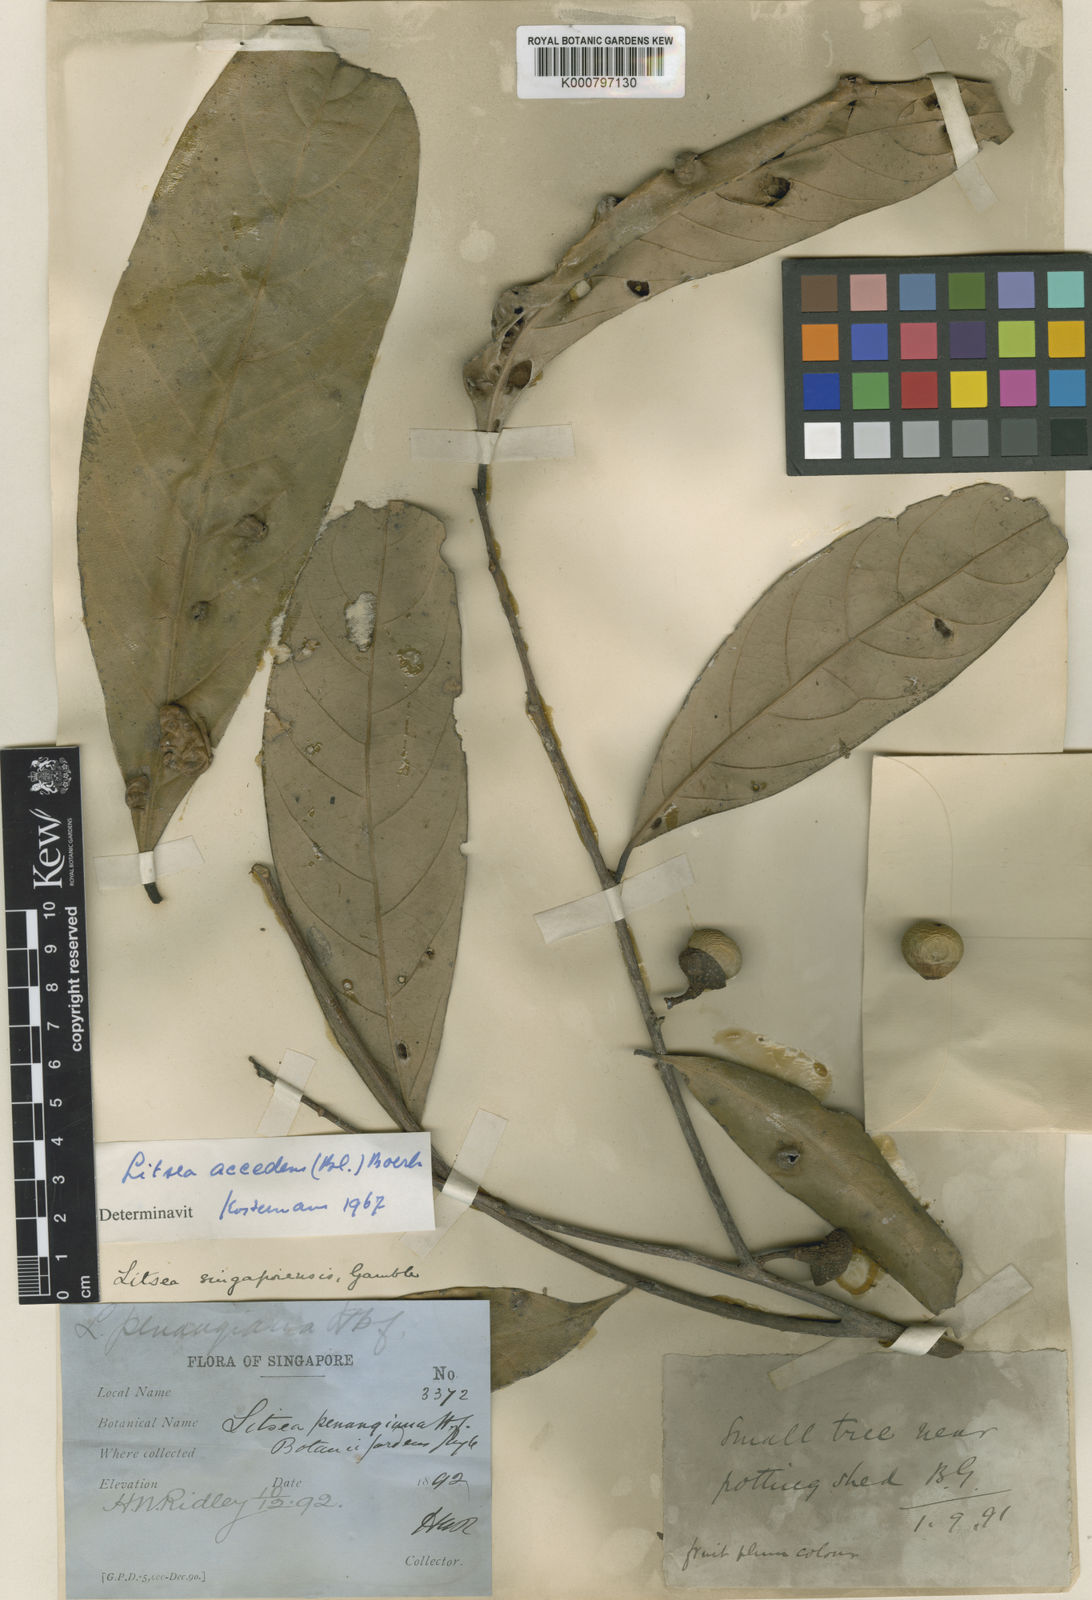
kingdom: Plantae
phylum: Tracheophyta
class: Magnoliopsida
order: Laurales
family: Lauraceae
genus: Litsea
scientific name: Litsea accedens
